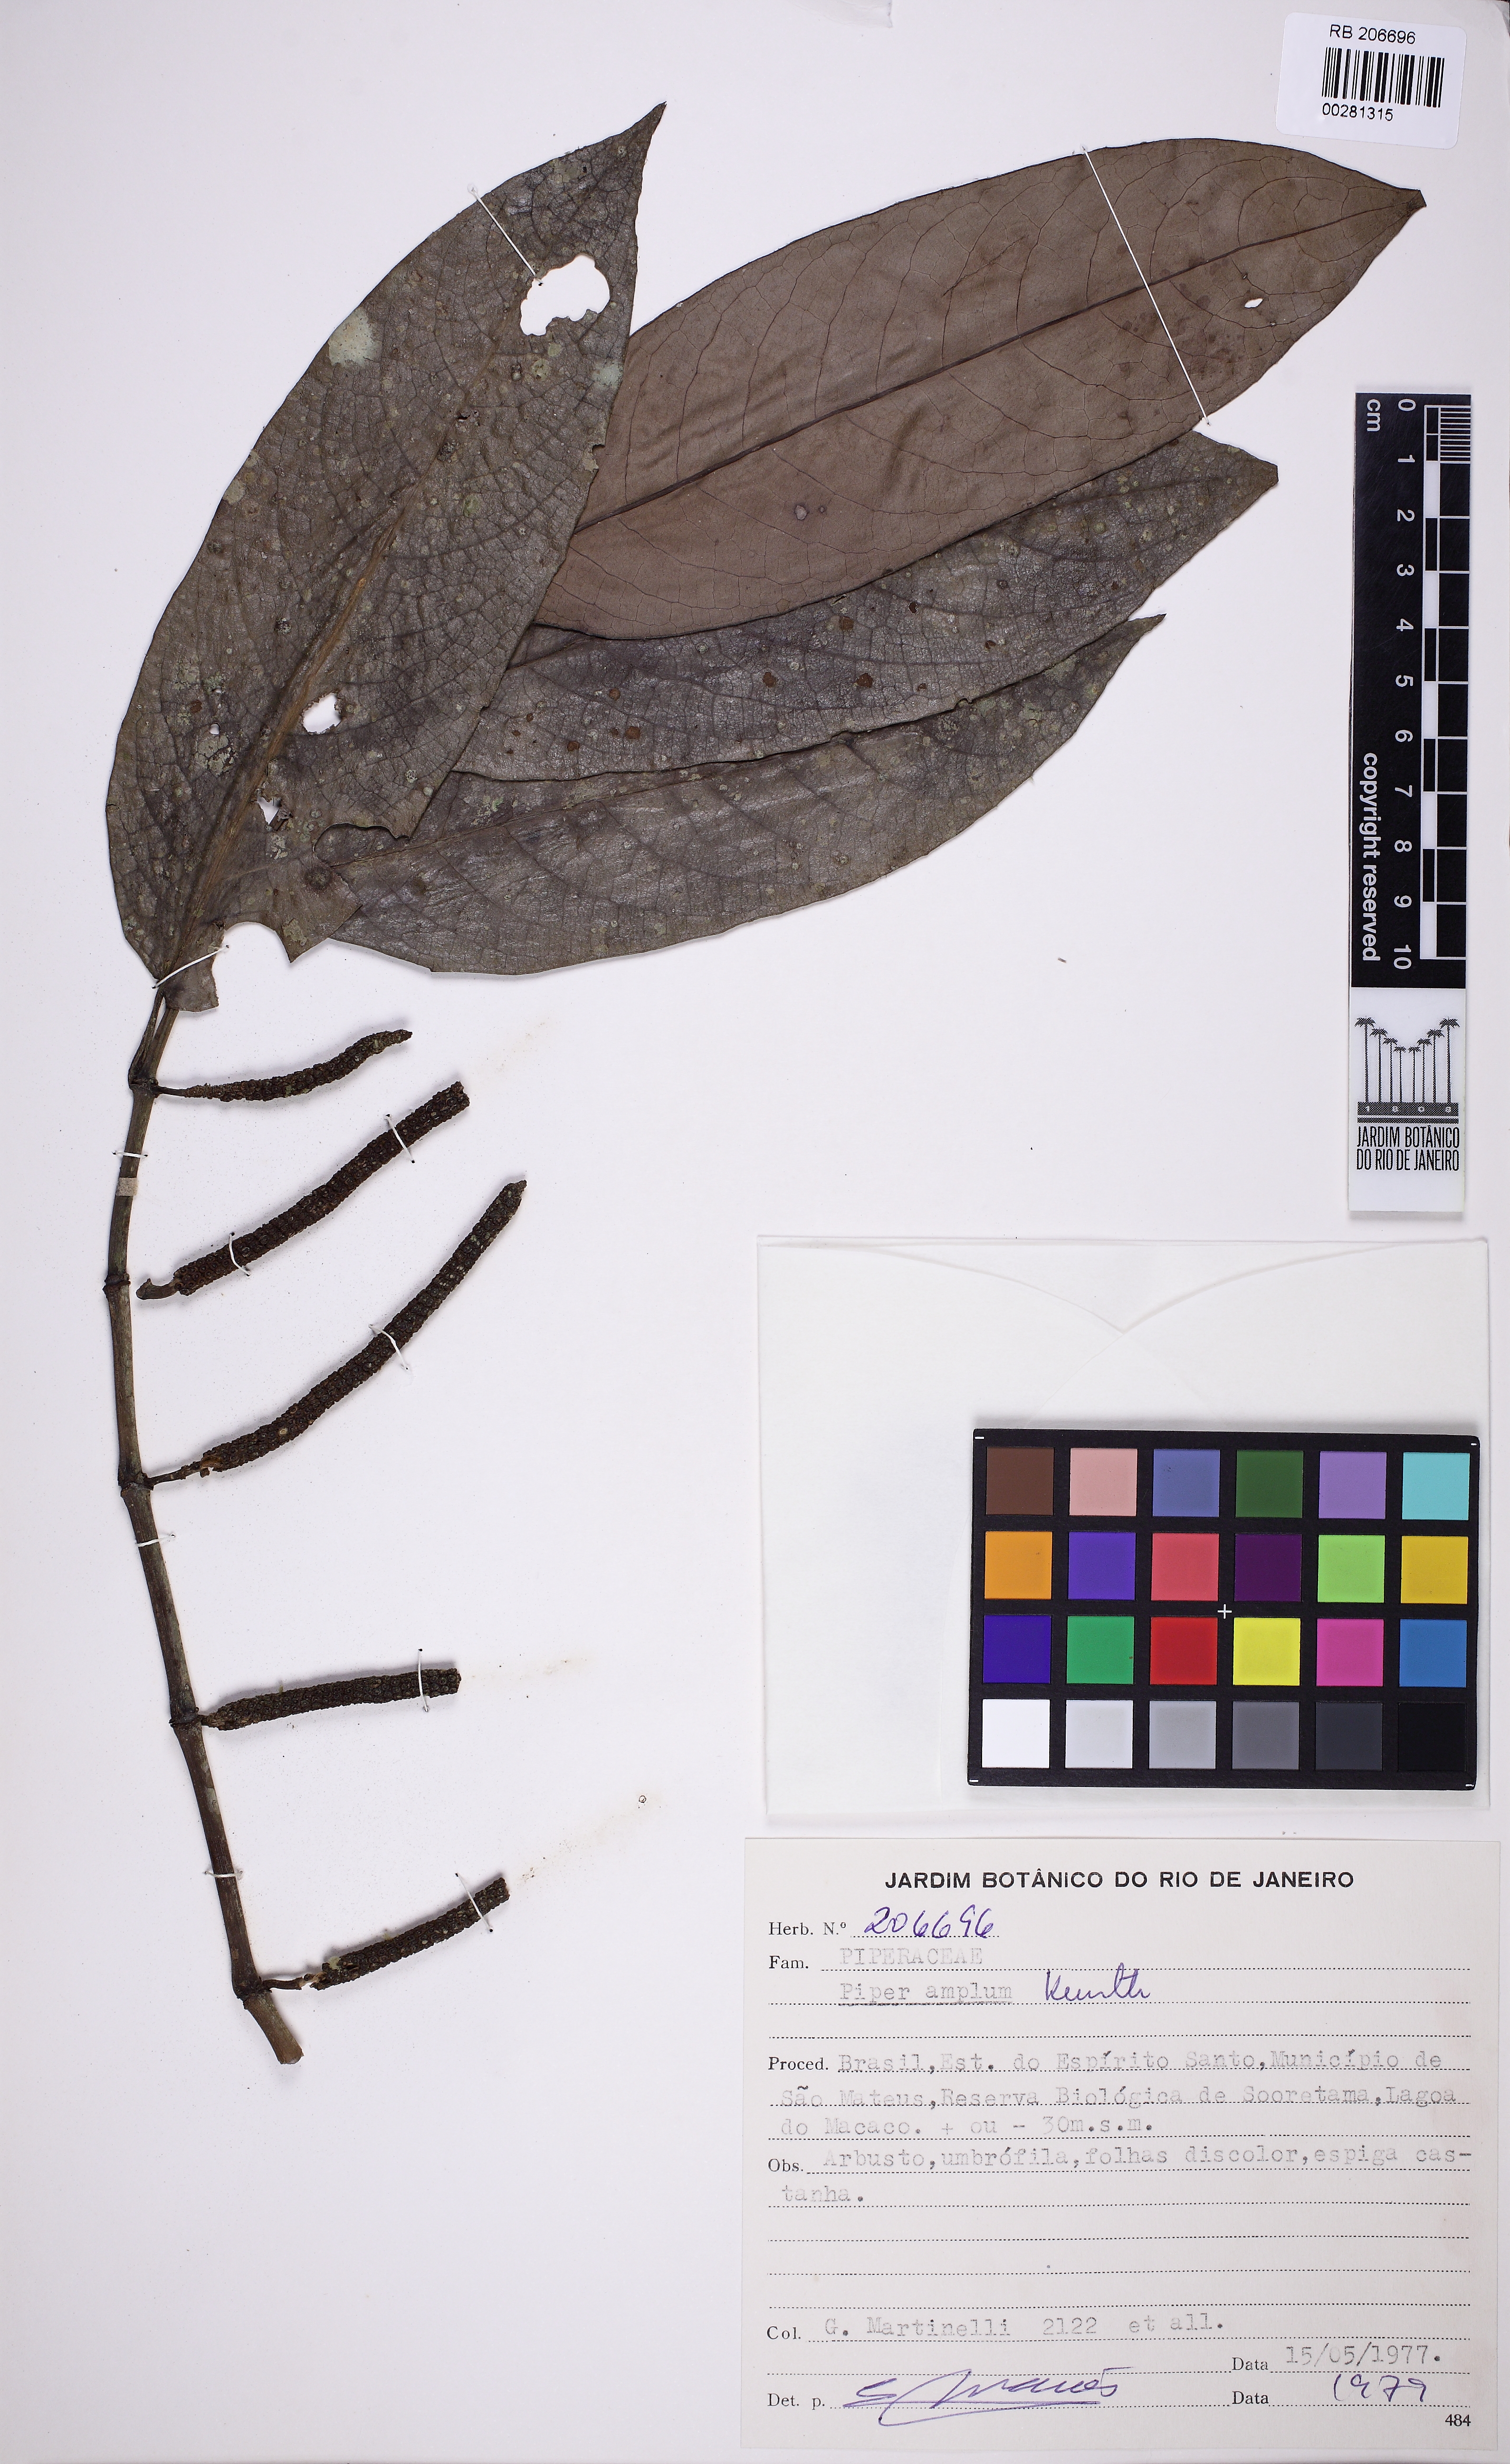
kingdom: Plantae
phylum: Tracheophyta
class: Magnoliopsida
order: Piperales
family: Piperaceae
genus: Piper
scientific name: Piper fluminense
